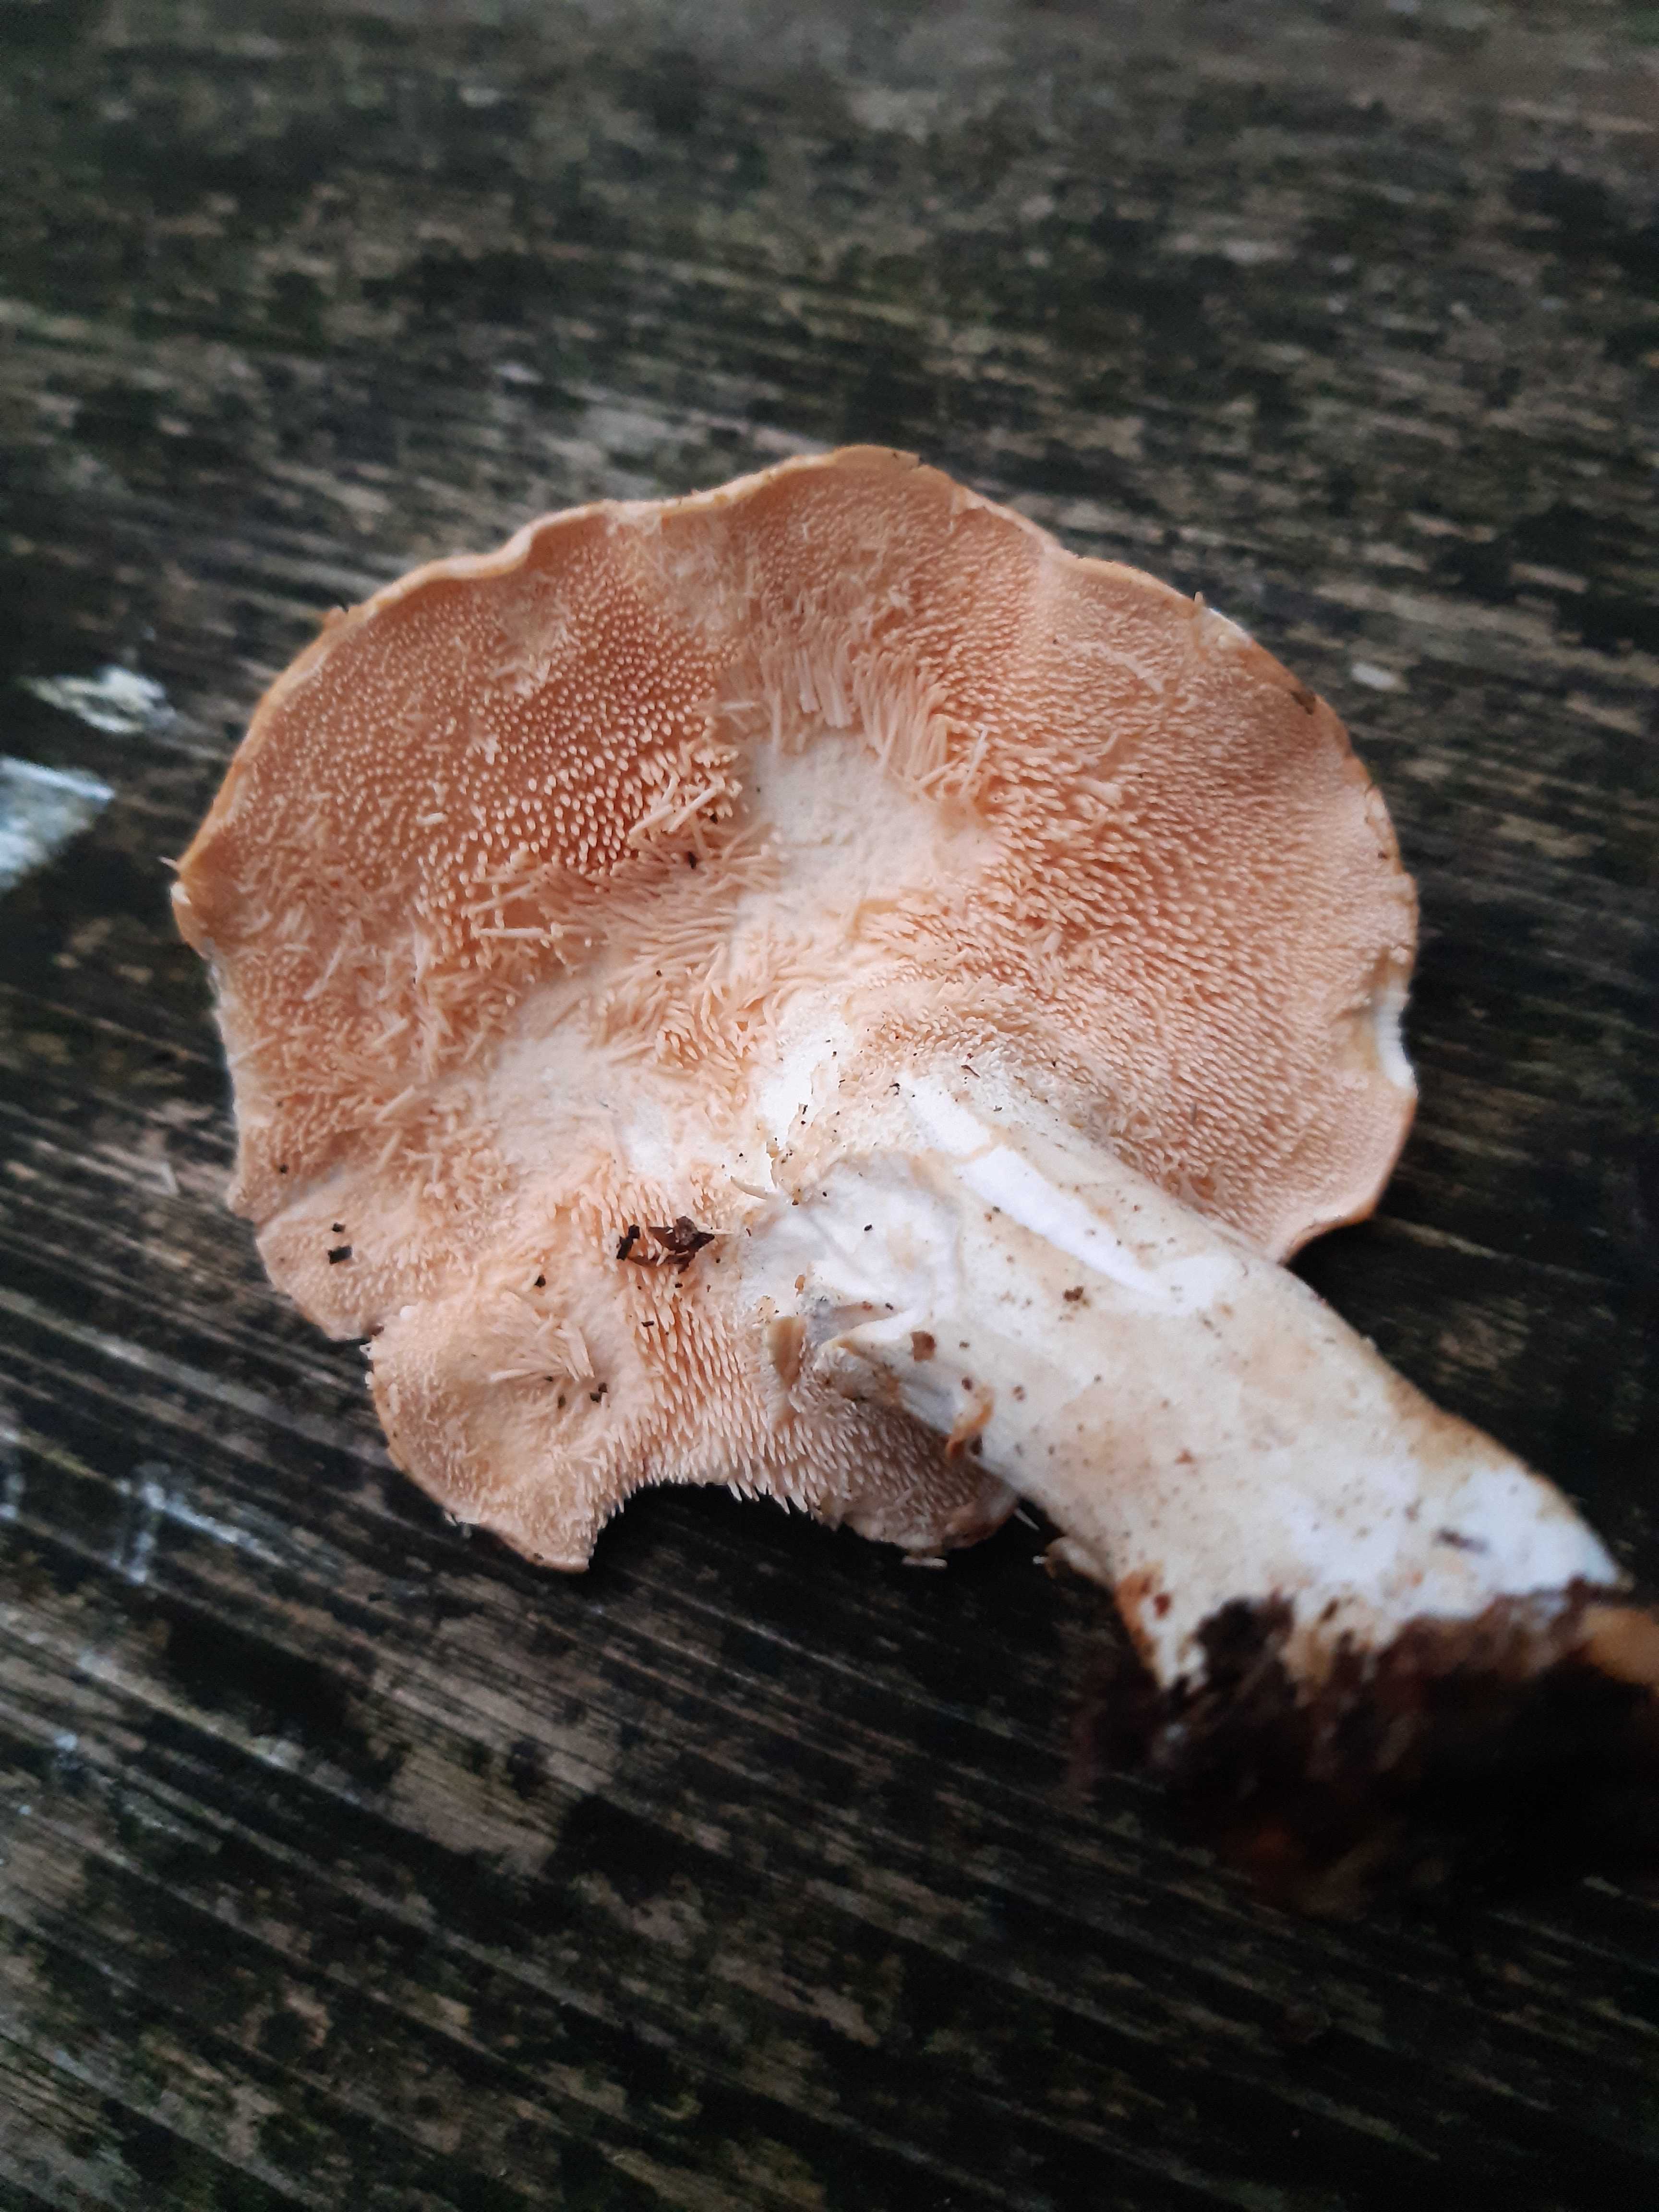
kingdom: Fungi
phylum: Basidiomycota
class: Agaricomycetes
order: Cantharellales
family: Hydnaceae
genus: Hydnum
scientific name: Hydnum
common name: pigsvamp
